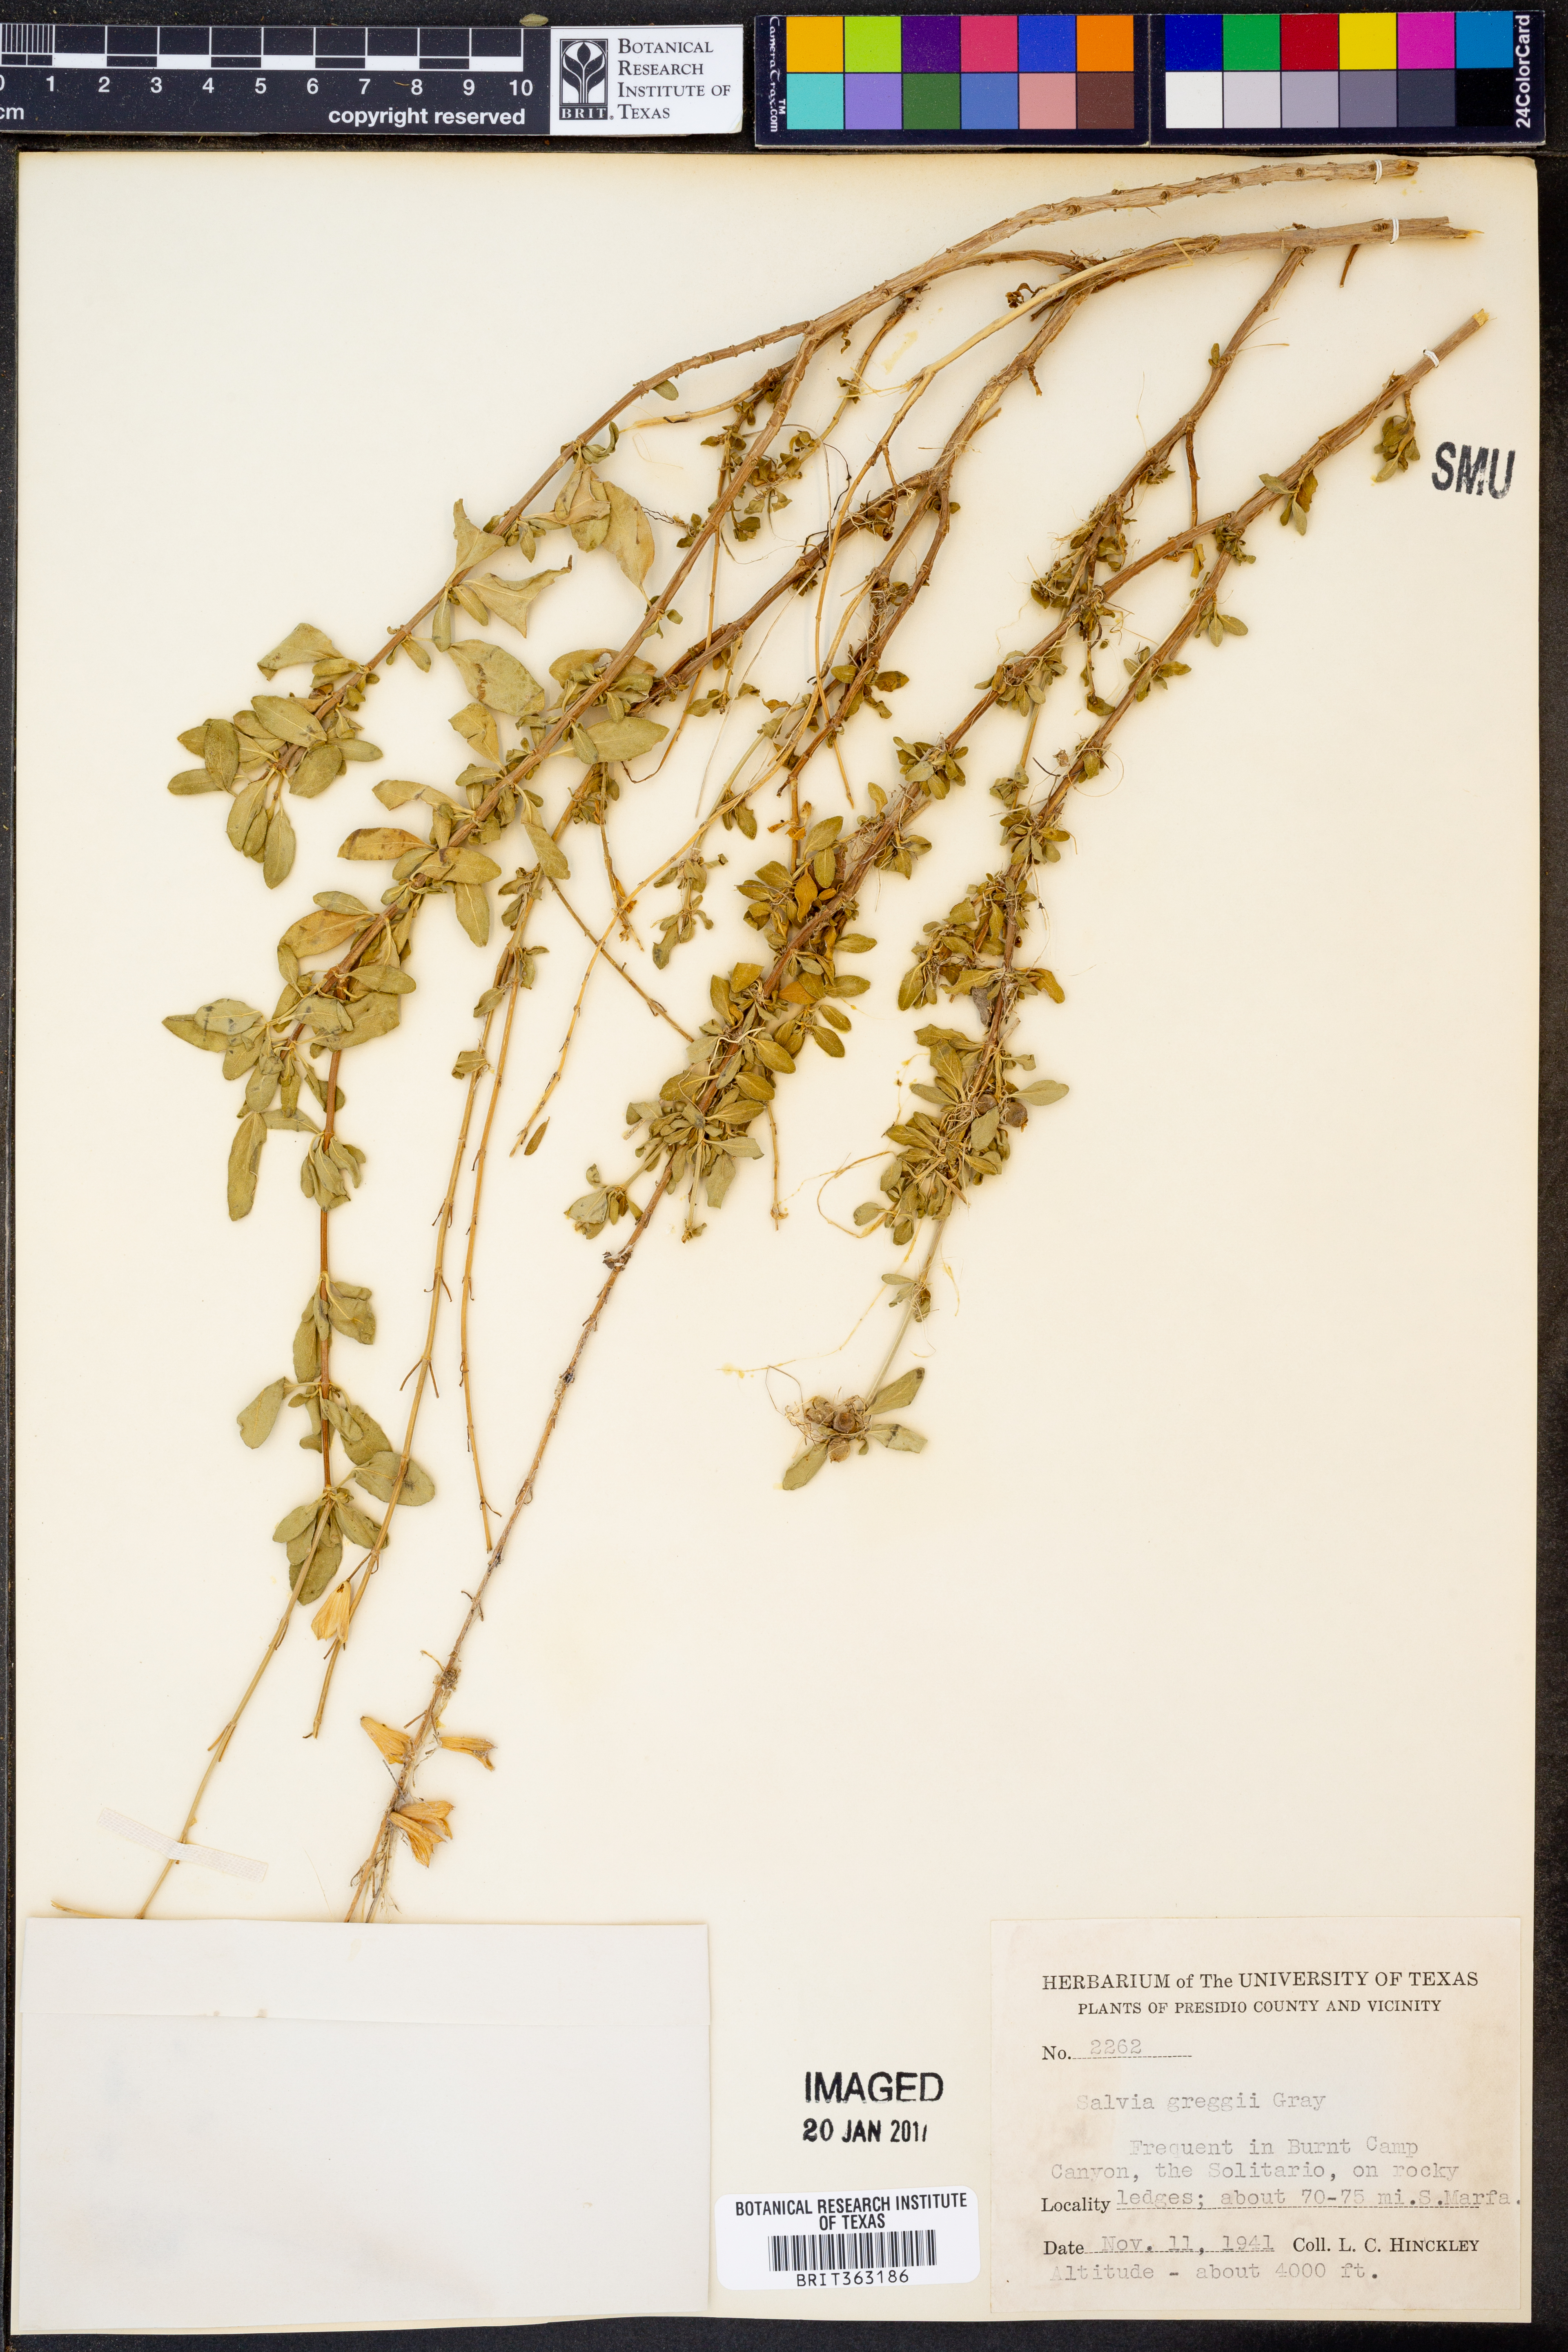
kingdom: Plantae
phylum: Tracheophyta
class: Magnoliopsida
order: Lamiales
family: Lamiaceae
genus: Salvia
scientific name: Salvia greggii
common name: Autumn sage
